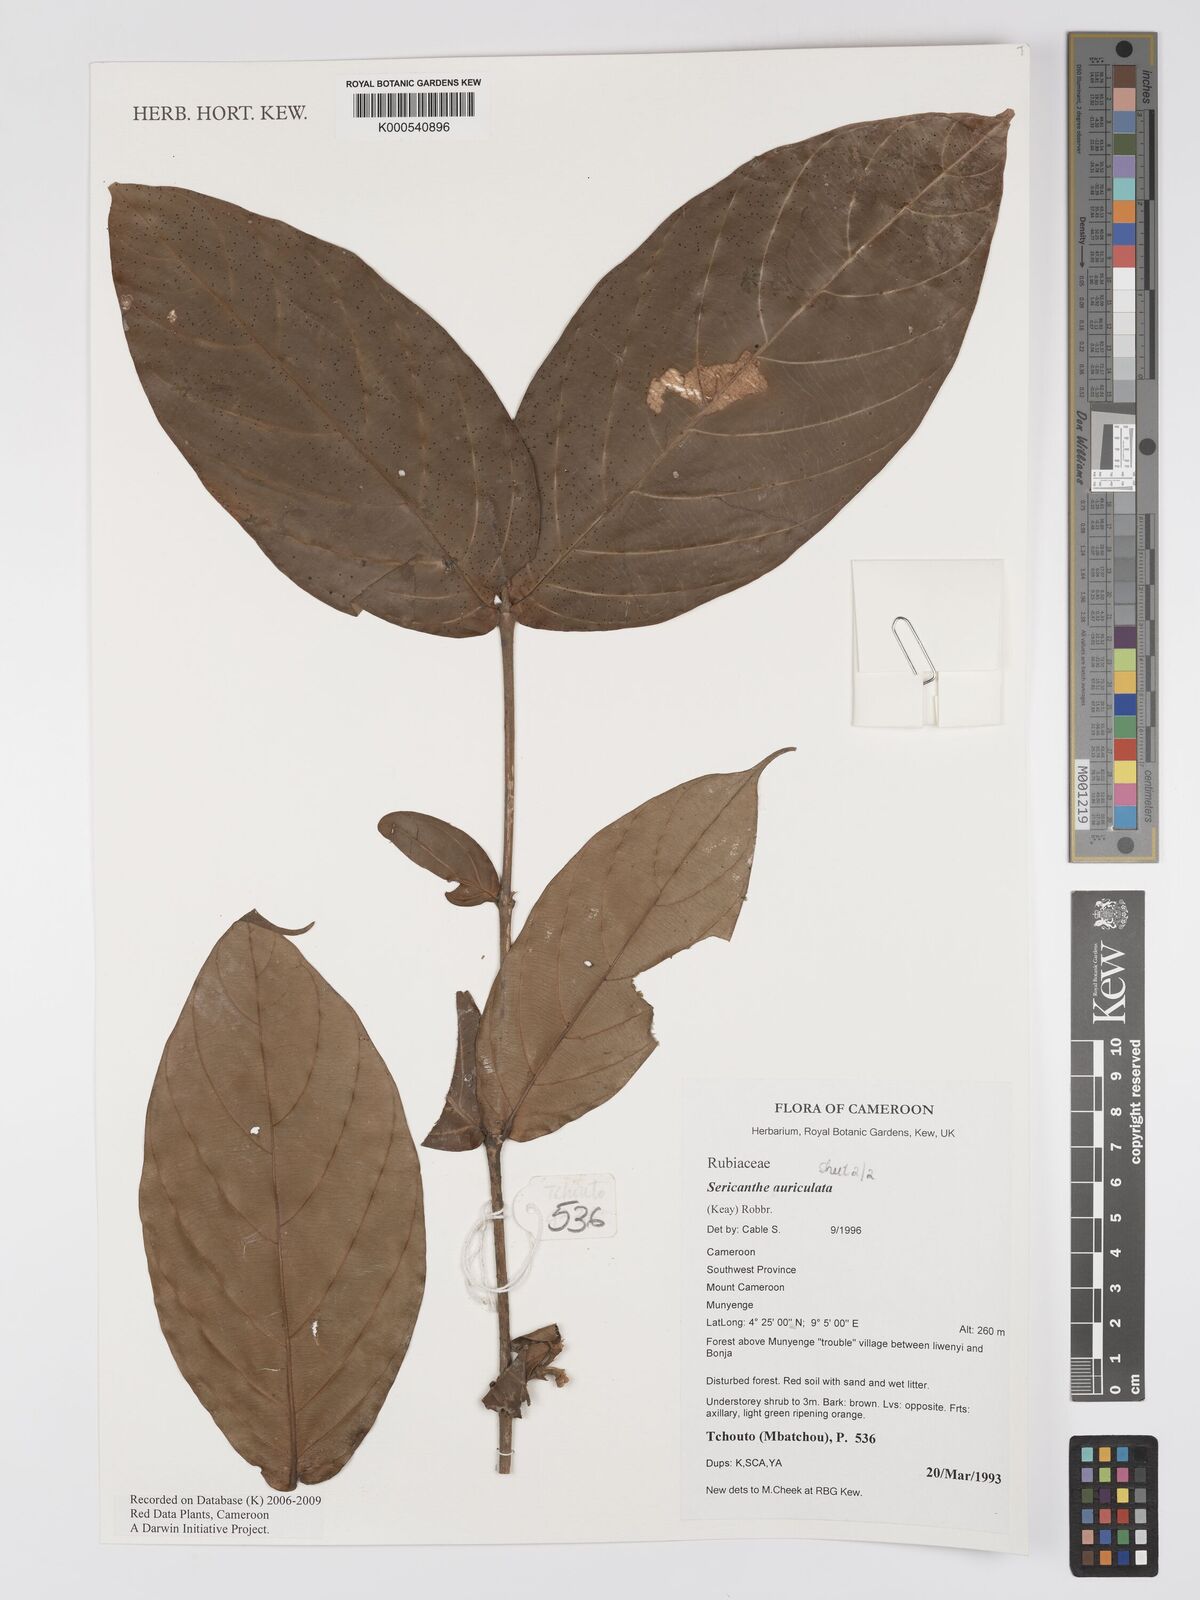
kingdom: Plantae
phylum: Tracheophyta
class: Magnoliopsida
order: Gentianales
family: Rubiaceae
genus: Sericanthe
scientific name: Sericanthe auriculata
